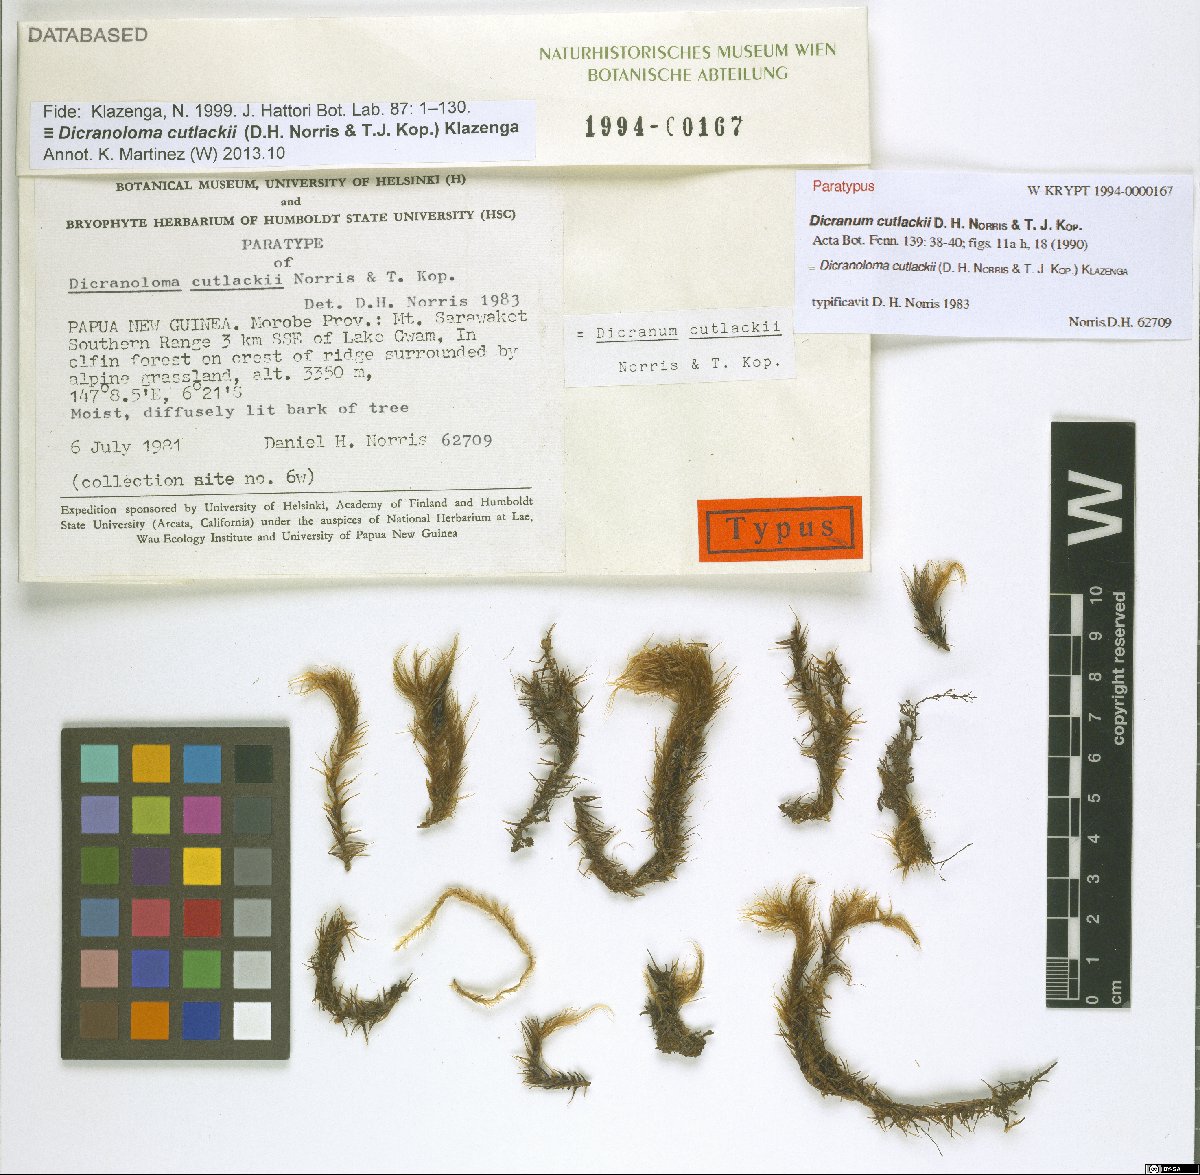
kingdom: Plantae
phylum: Bryophyta
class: Bryopsida
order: Dicranales
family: Dicranaceae
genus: Dicranoloma
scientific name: Dicranoloma cutlackii
